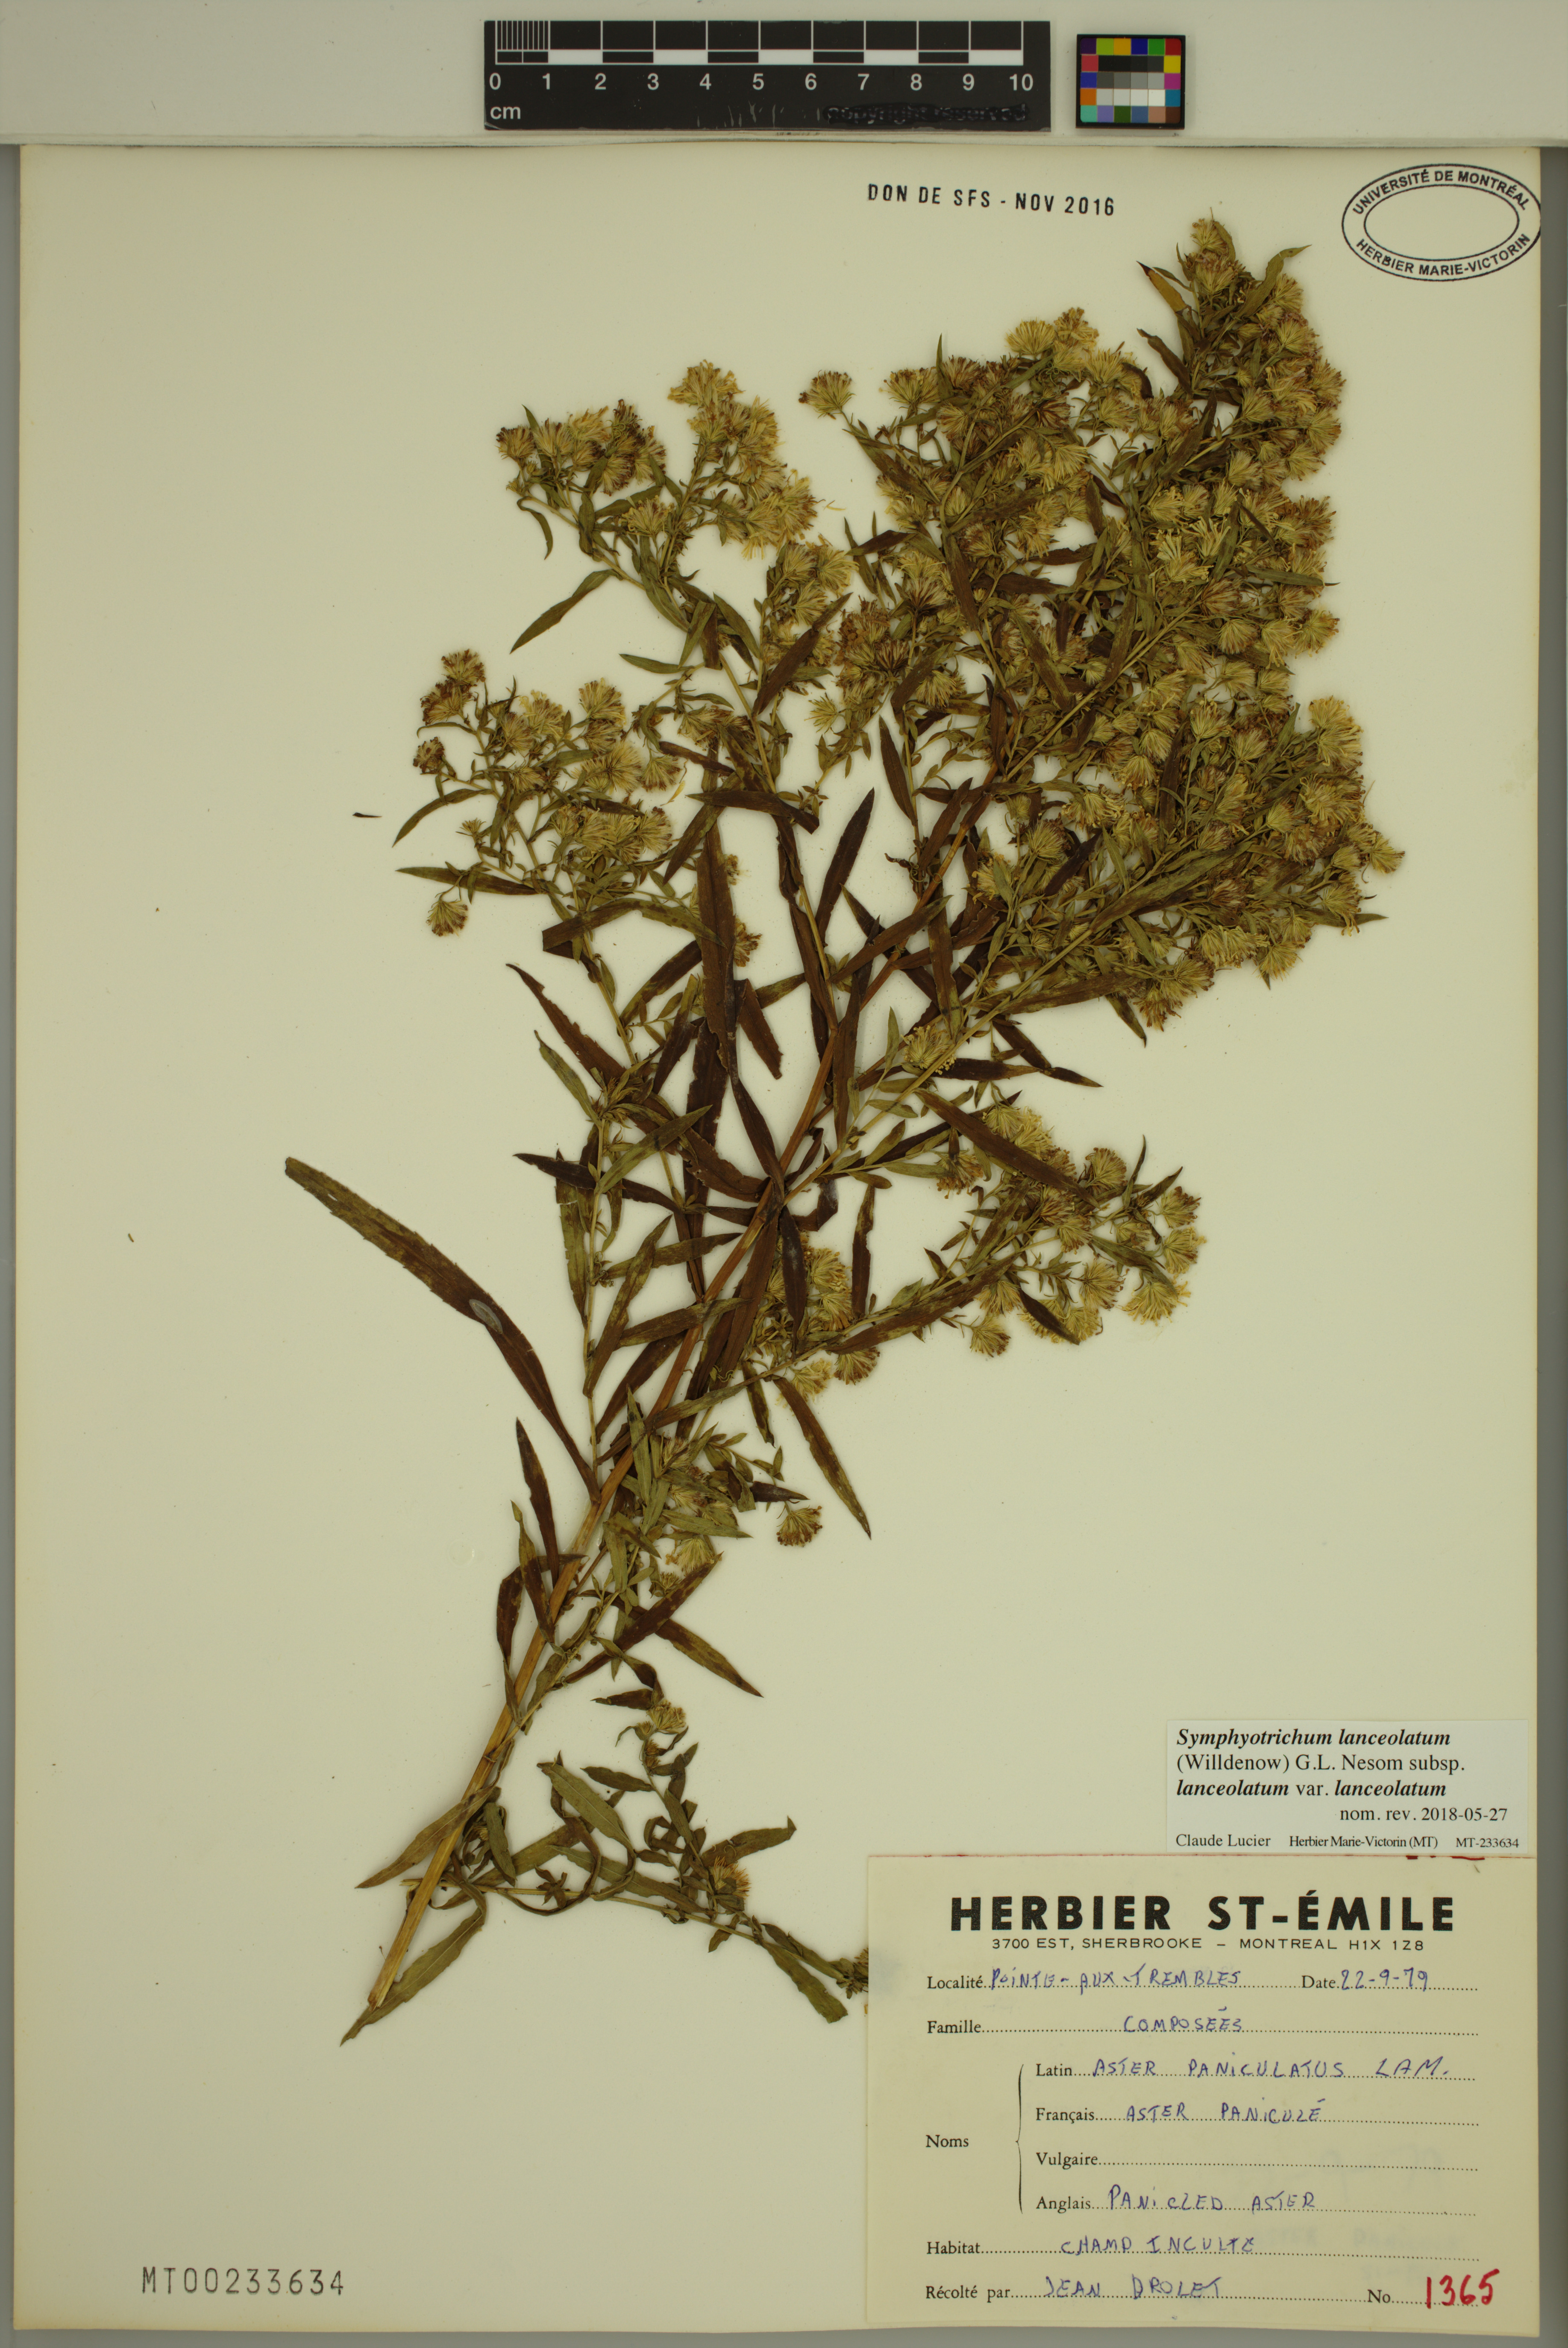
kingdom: Plantae
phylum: Tracheophyta
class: Magnoliopsida
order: Asterales
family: Asteraceae
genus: Symphyotrichum
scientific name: Symphyotrichum lanceolatum
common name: Panicled aster
